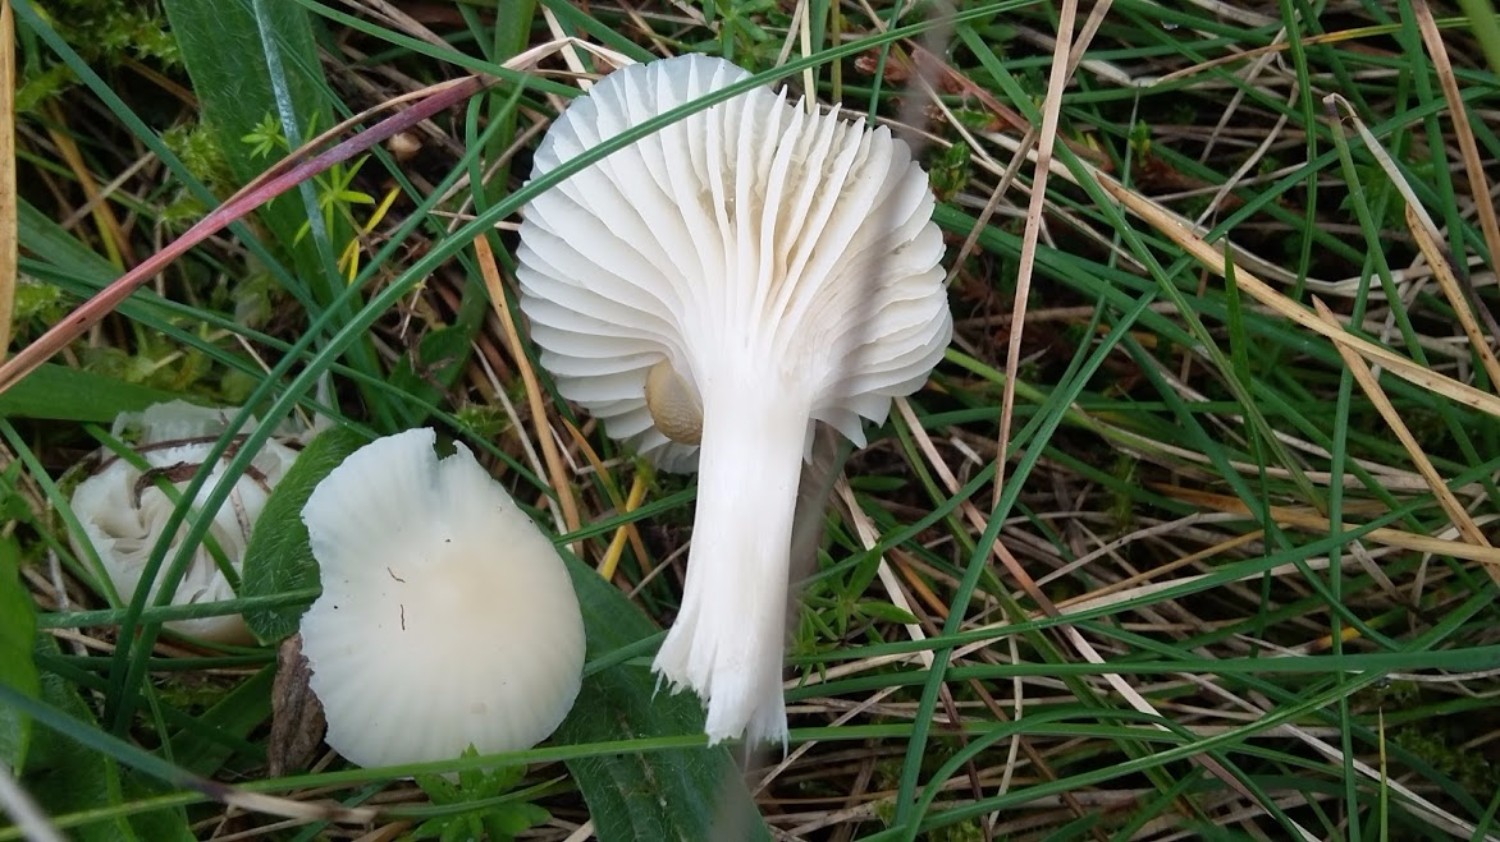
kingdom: Fungi
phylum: Basidiomycota
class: Agaricomycetes
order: Agaricales
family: Hygrophoraceae
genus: Cuphophyllus
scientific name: Cuphophyllus virgineus
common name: snehvid vokshat
